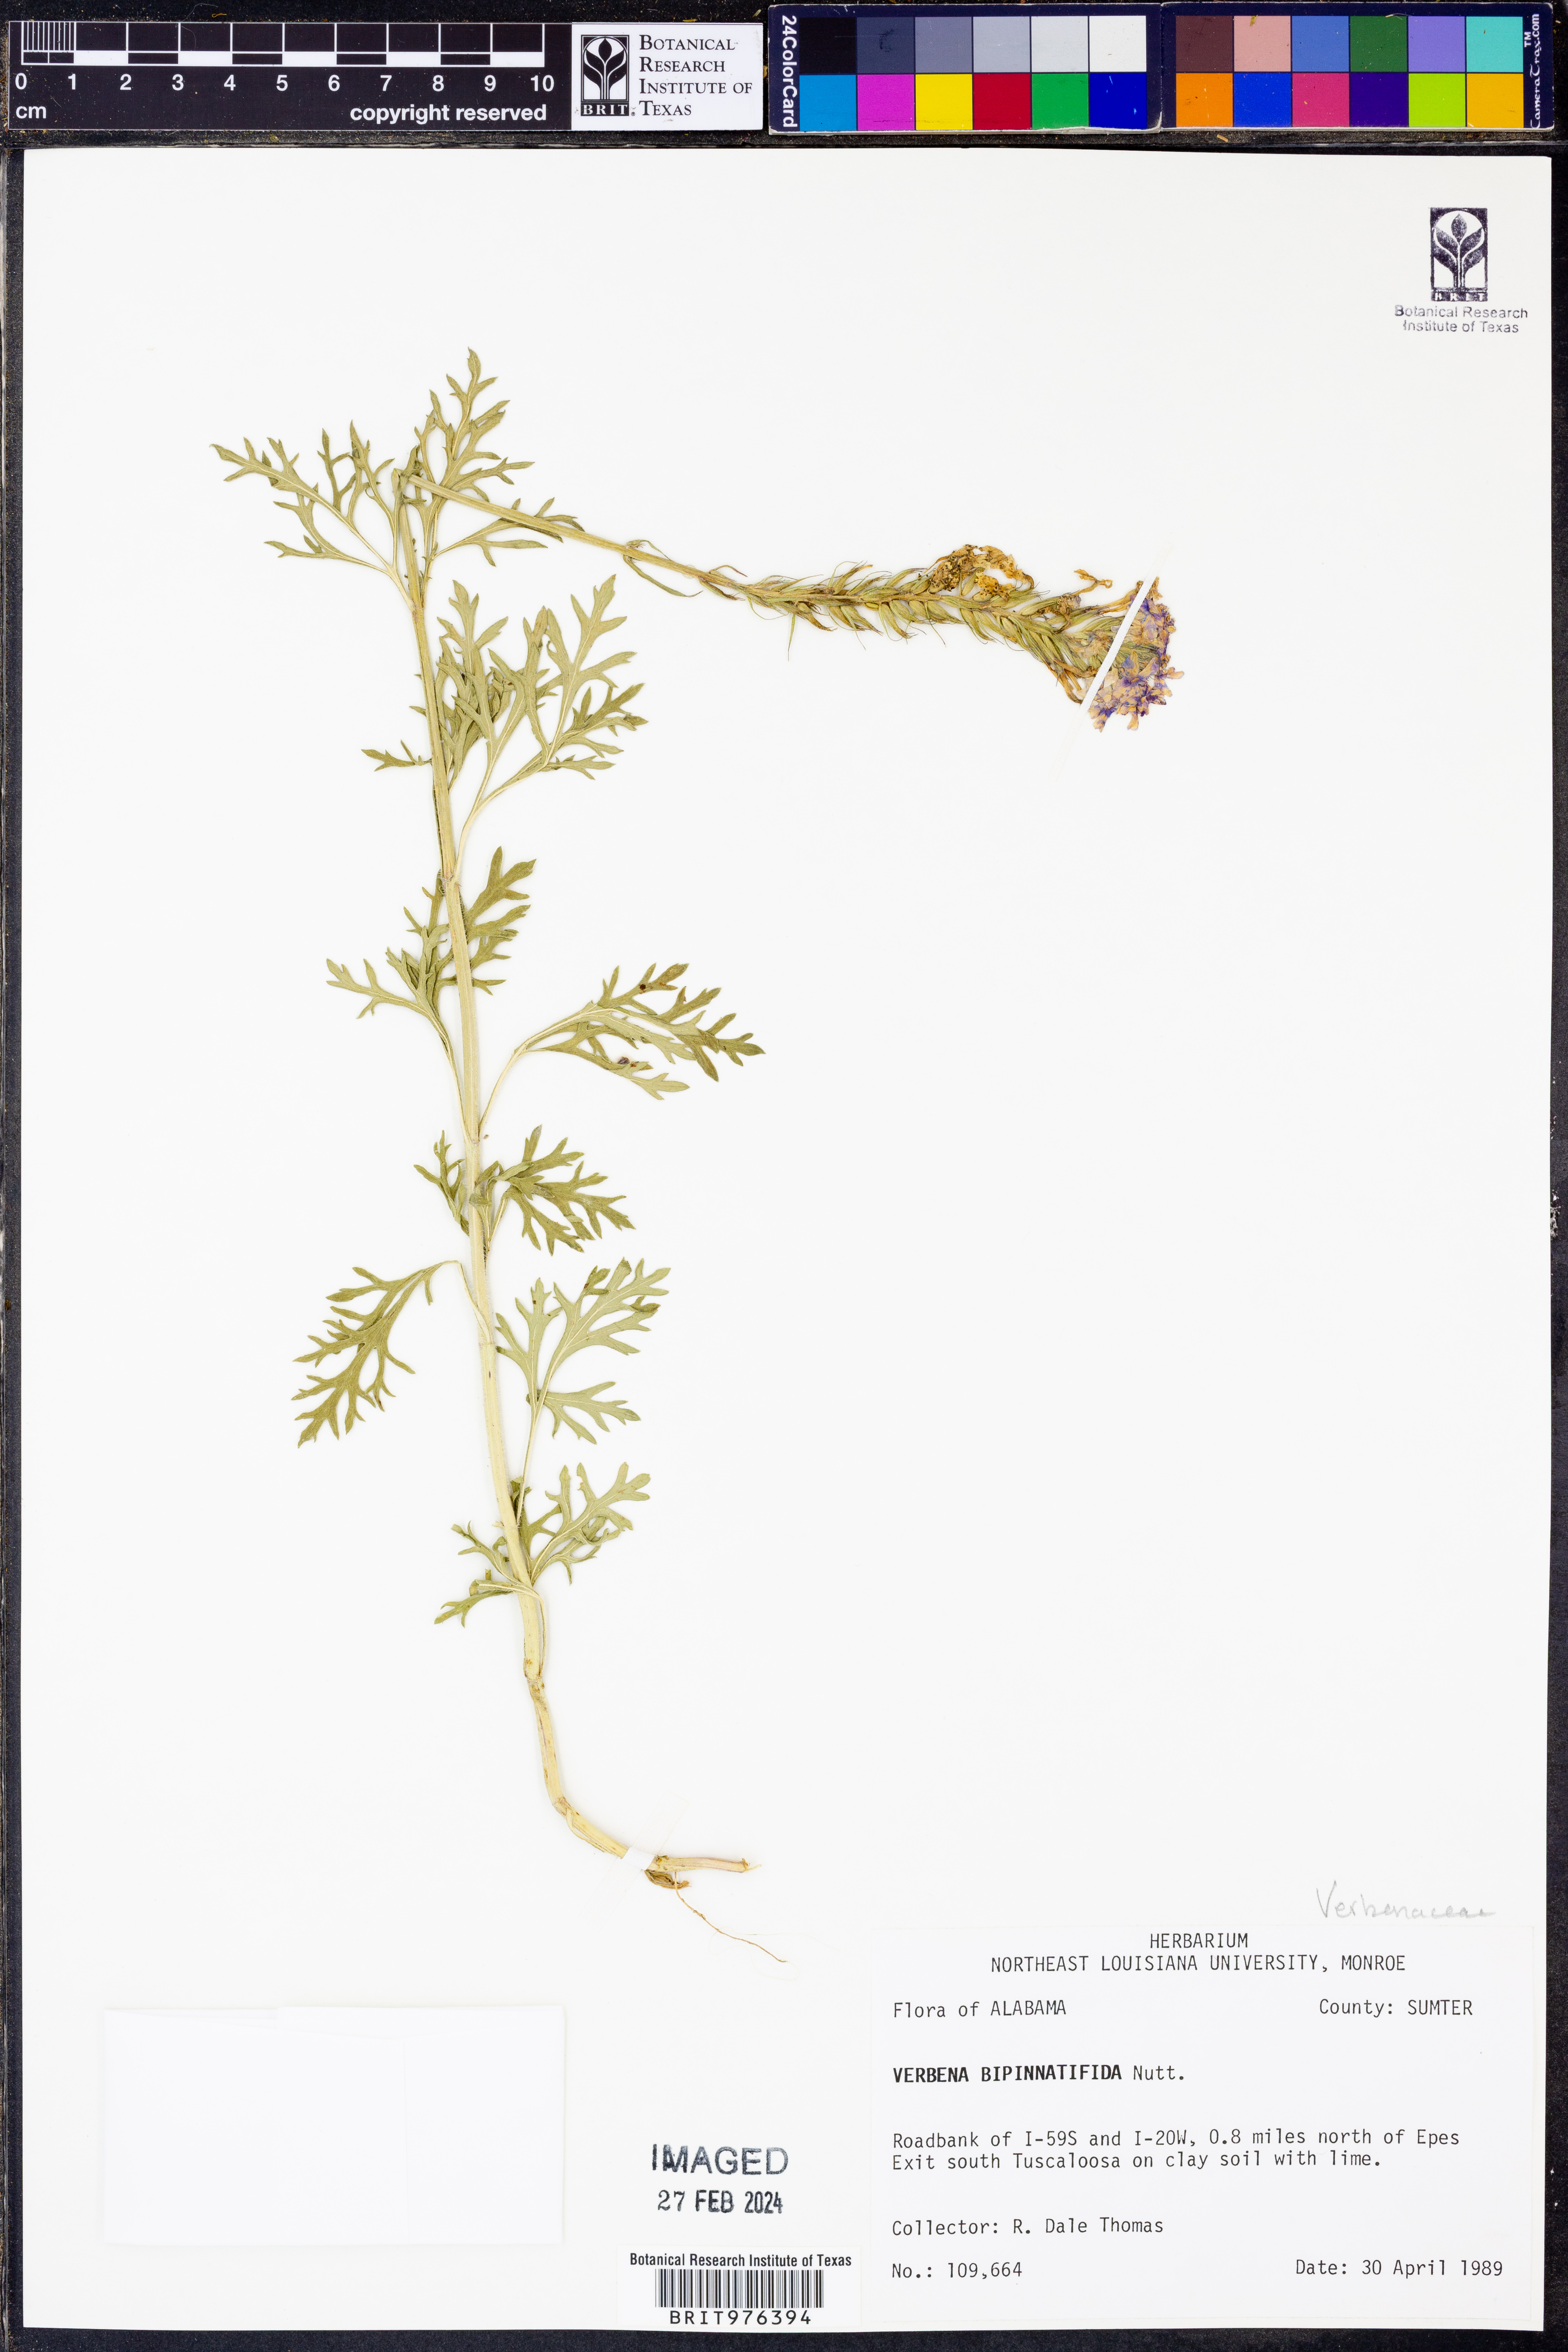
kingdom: Plantae
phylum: Tracheophyta
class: Magnoliopsida
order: Lamiales
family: Verbenaceae
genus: Verbena
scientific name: Verbena bipinnatifida
